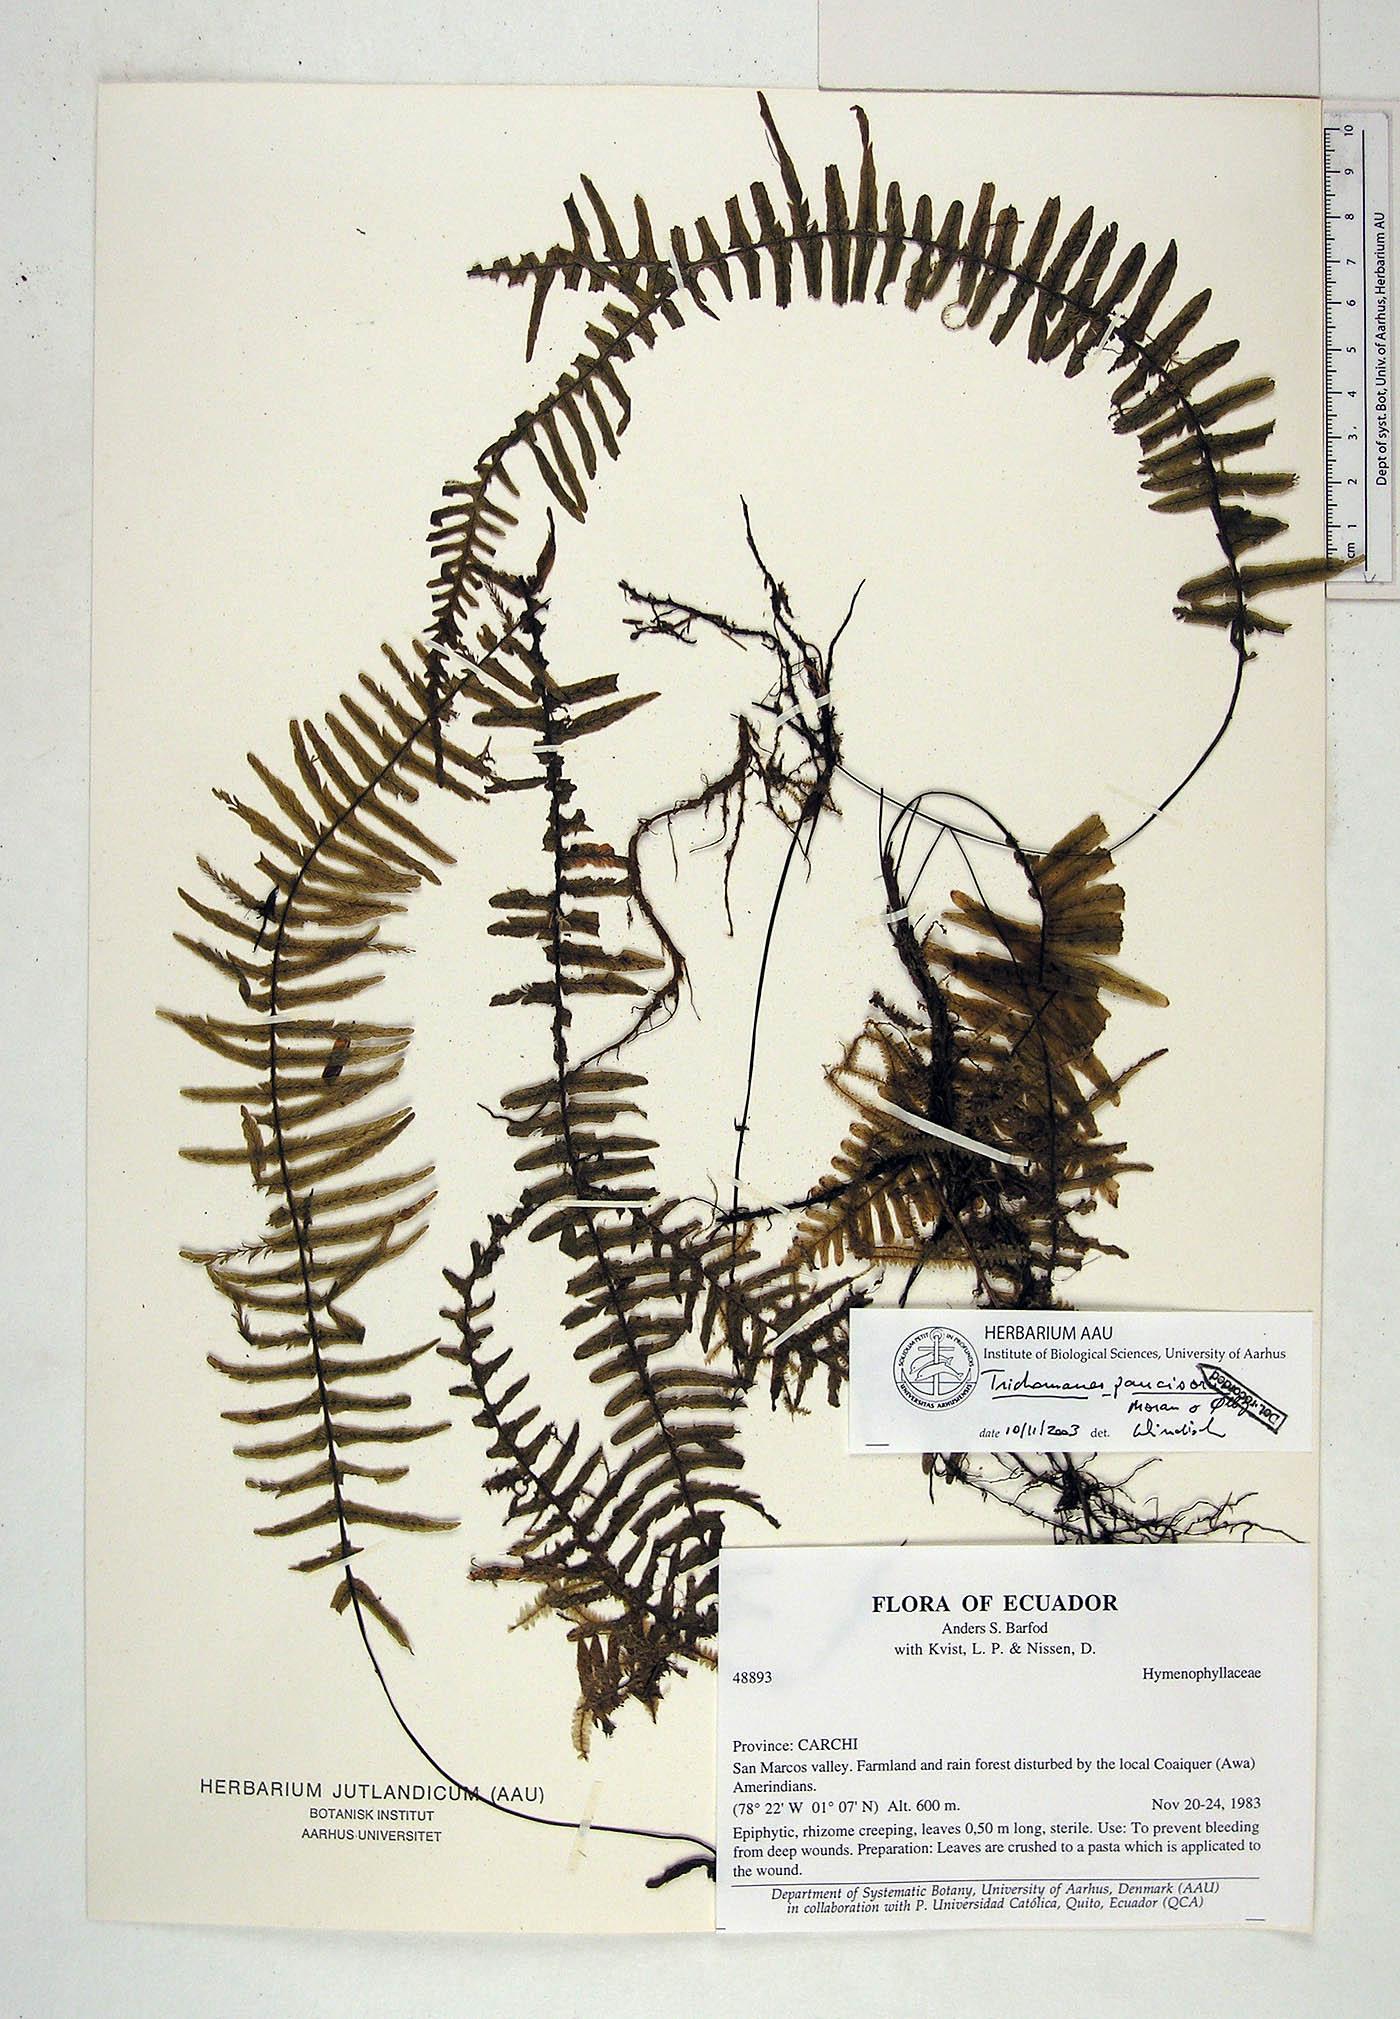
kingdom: Plantae
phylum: Tracheophyta
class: Polypodiopsida
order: Hymenophyllales
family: Hymenophyllaceae
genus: Trichomanes
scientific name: Trichomanes paucisorum
